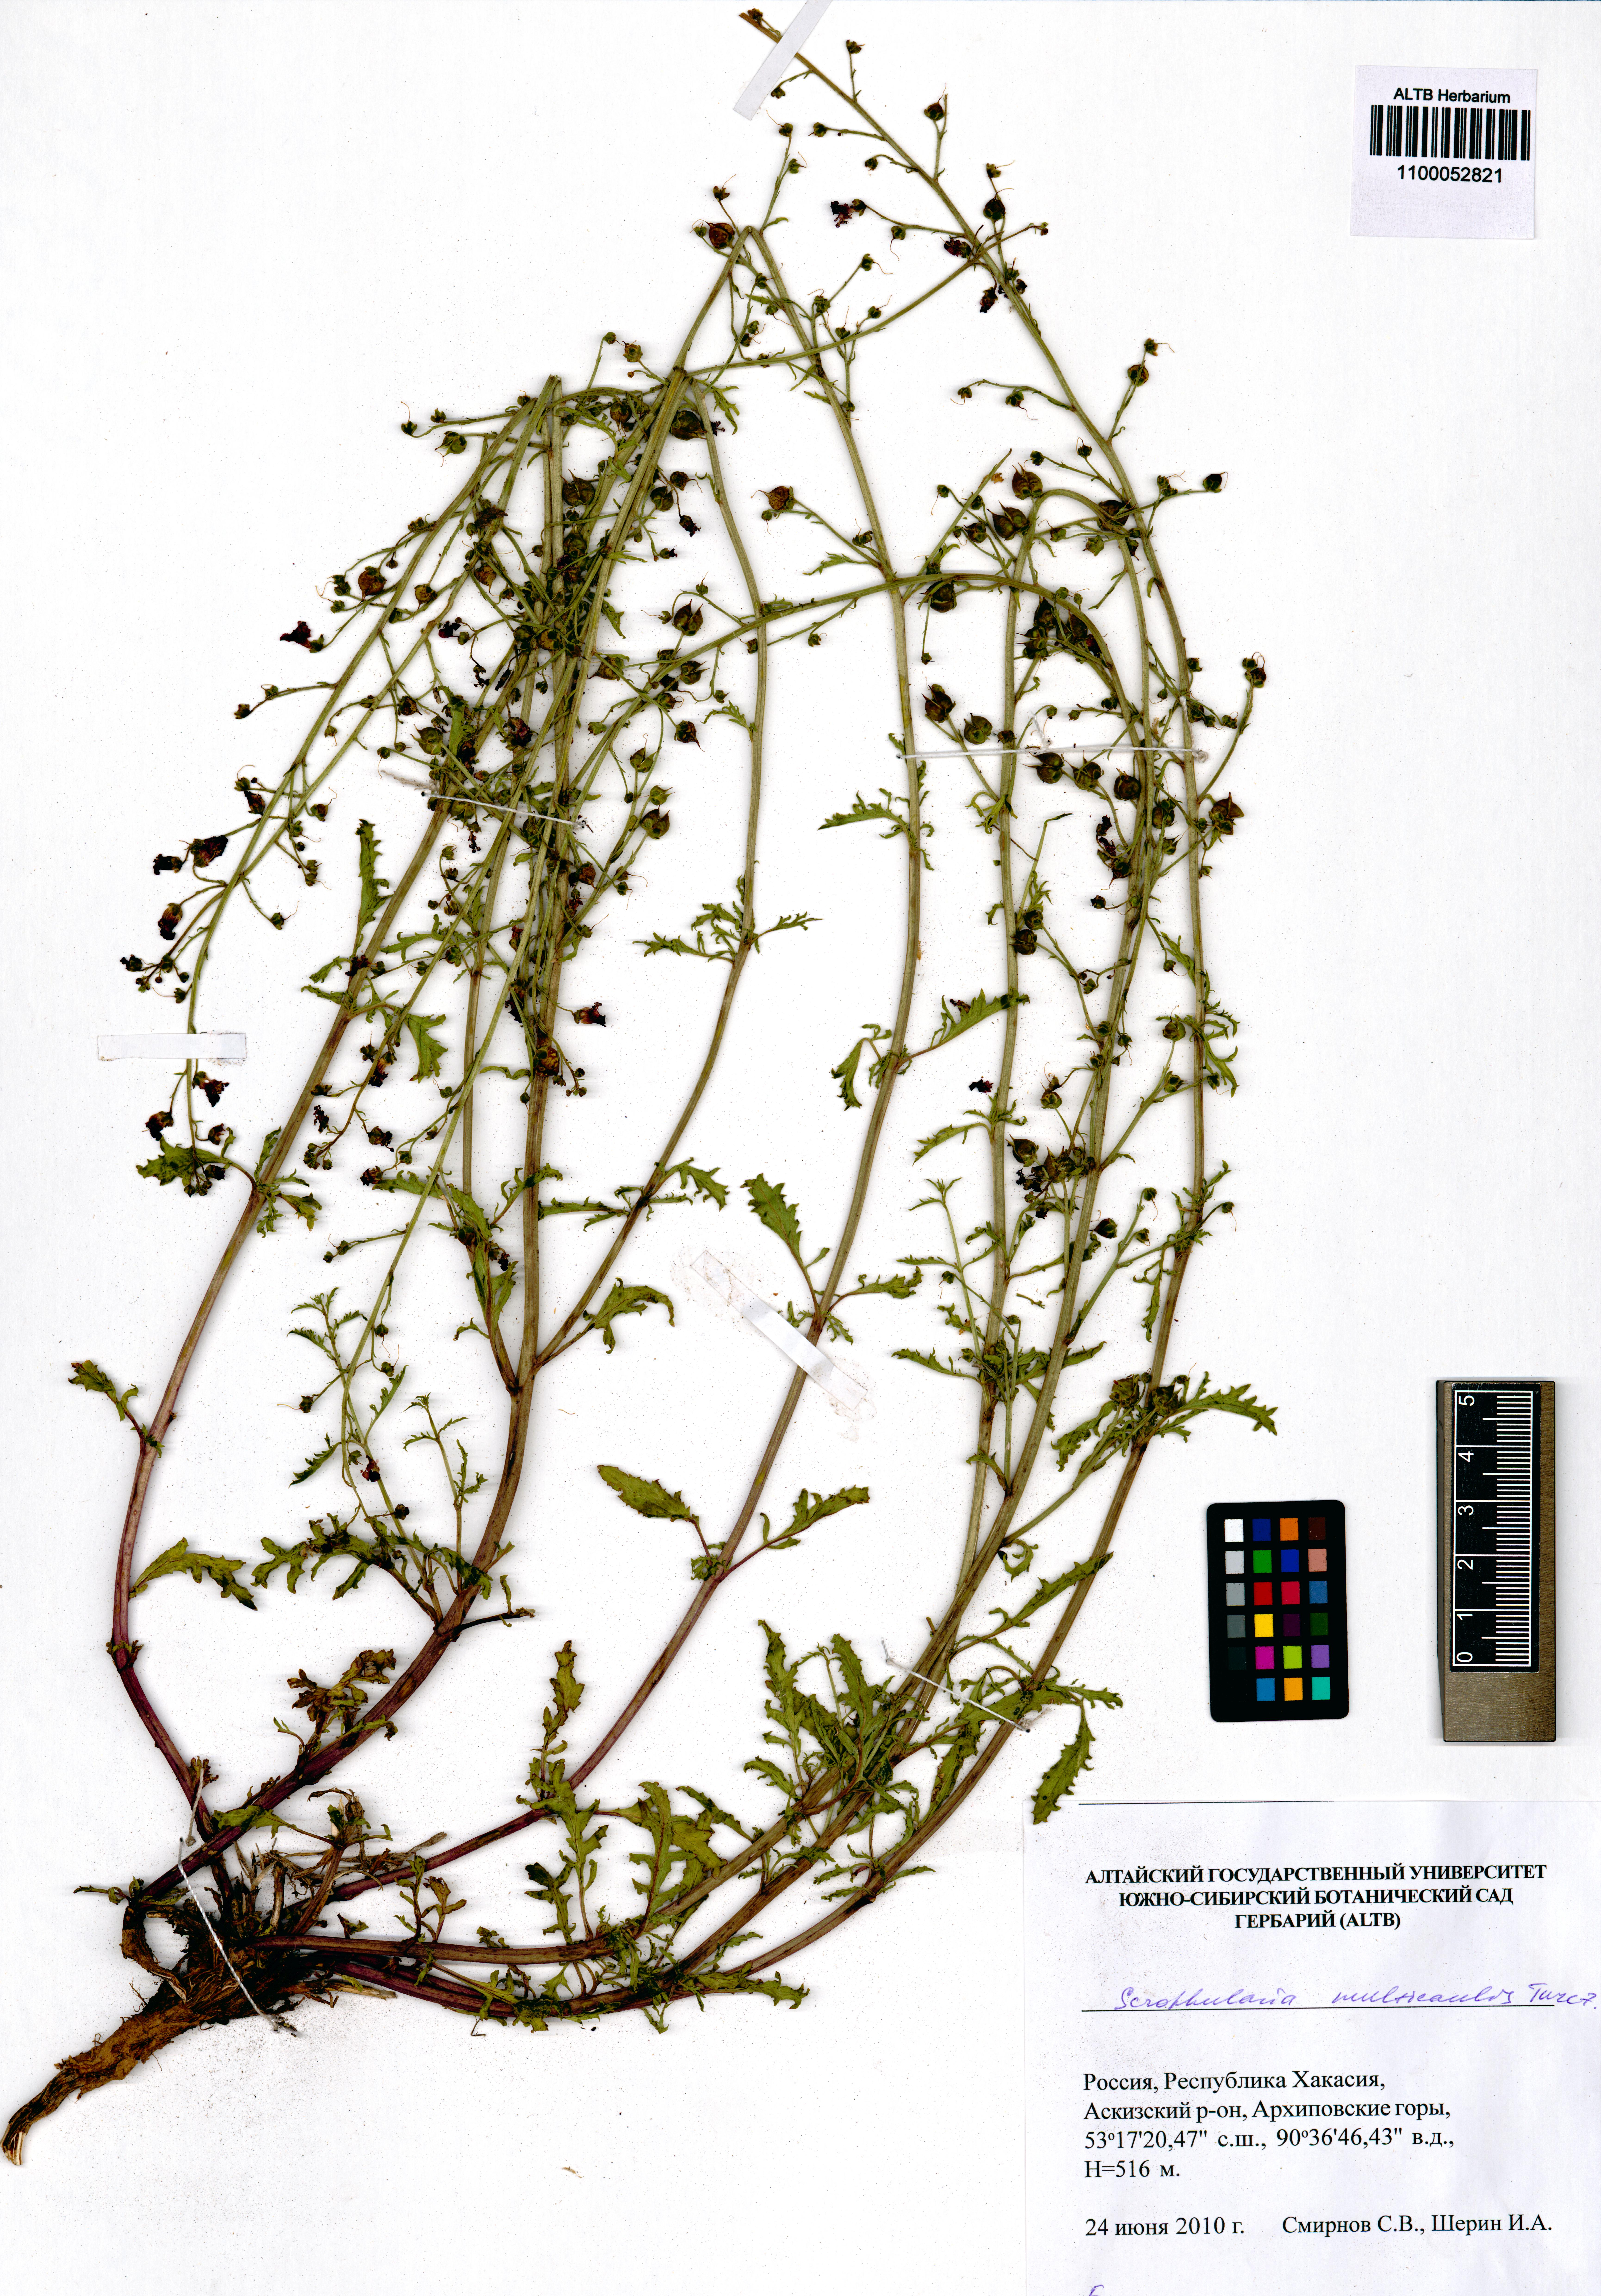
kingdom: Plantae
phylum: Tracheophyta
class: Magnoliopsida
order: Lamiales
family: Scrophulariaceae
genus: Scrophularia
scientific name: Scrophularia multicaulis
